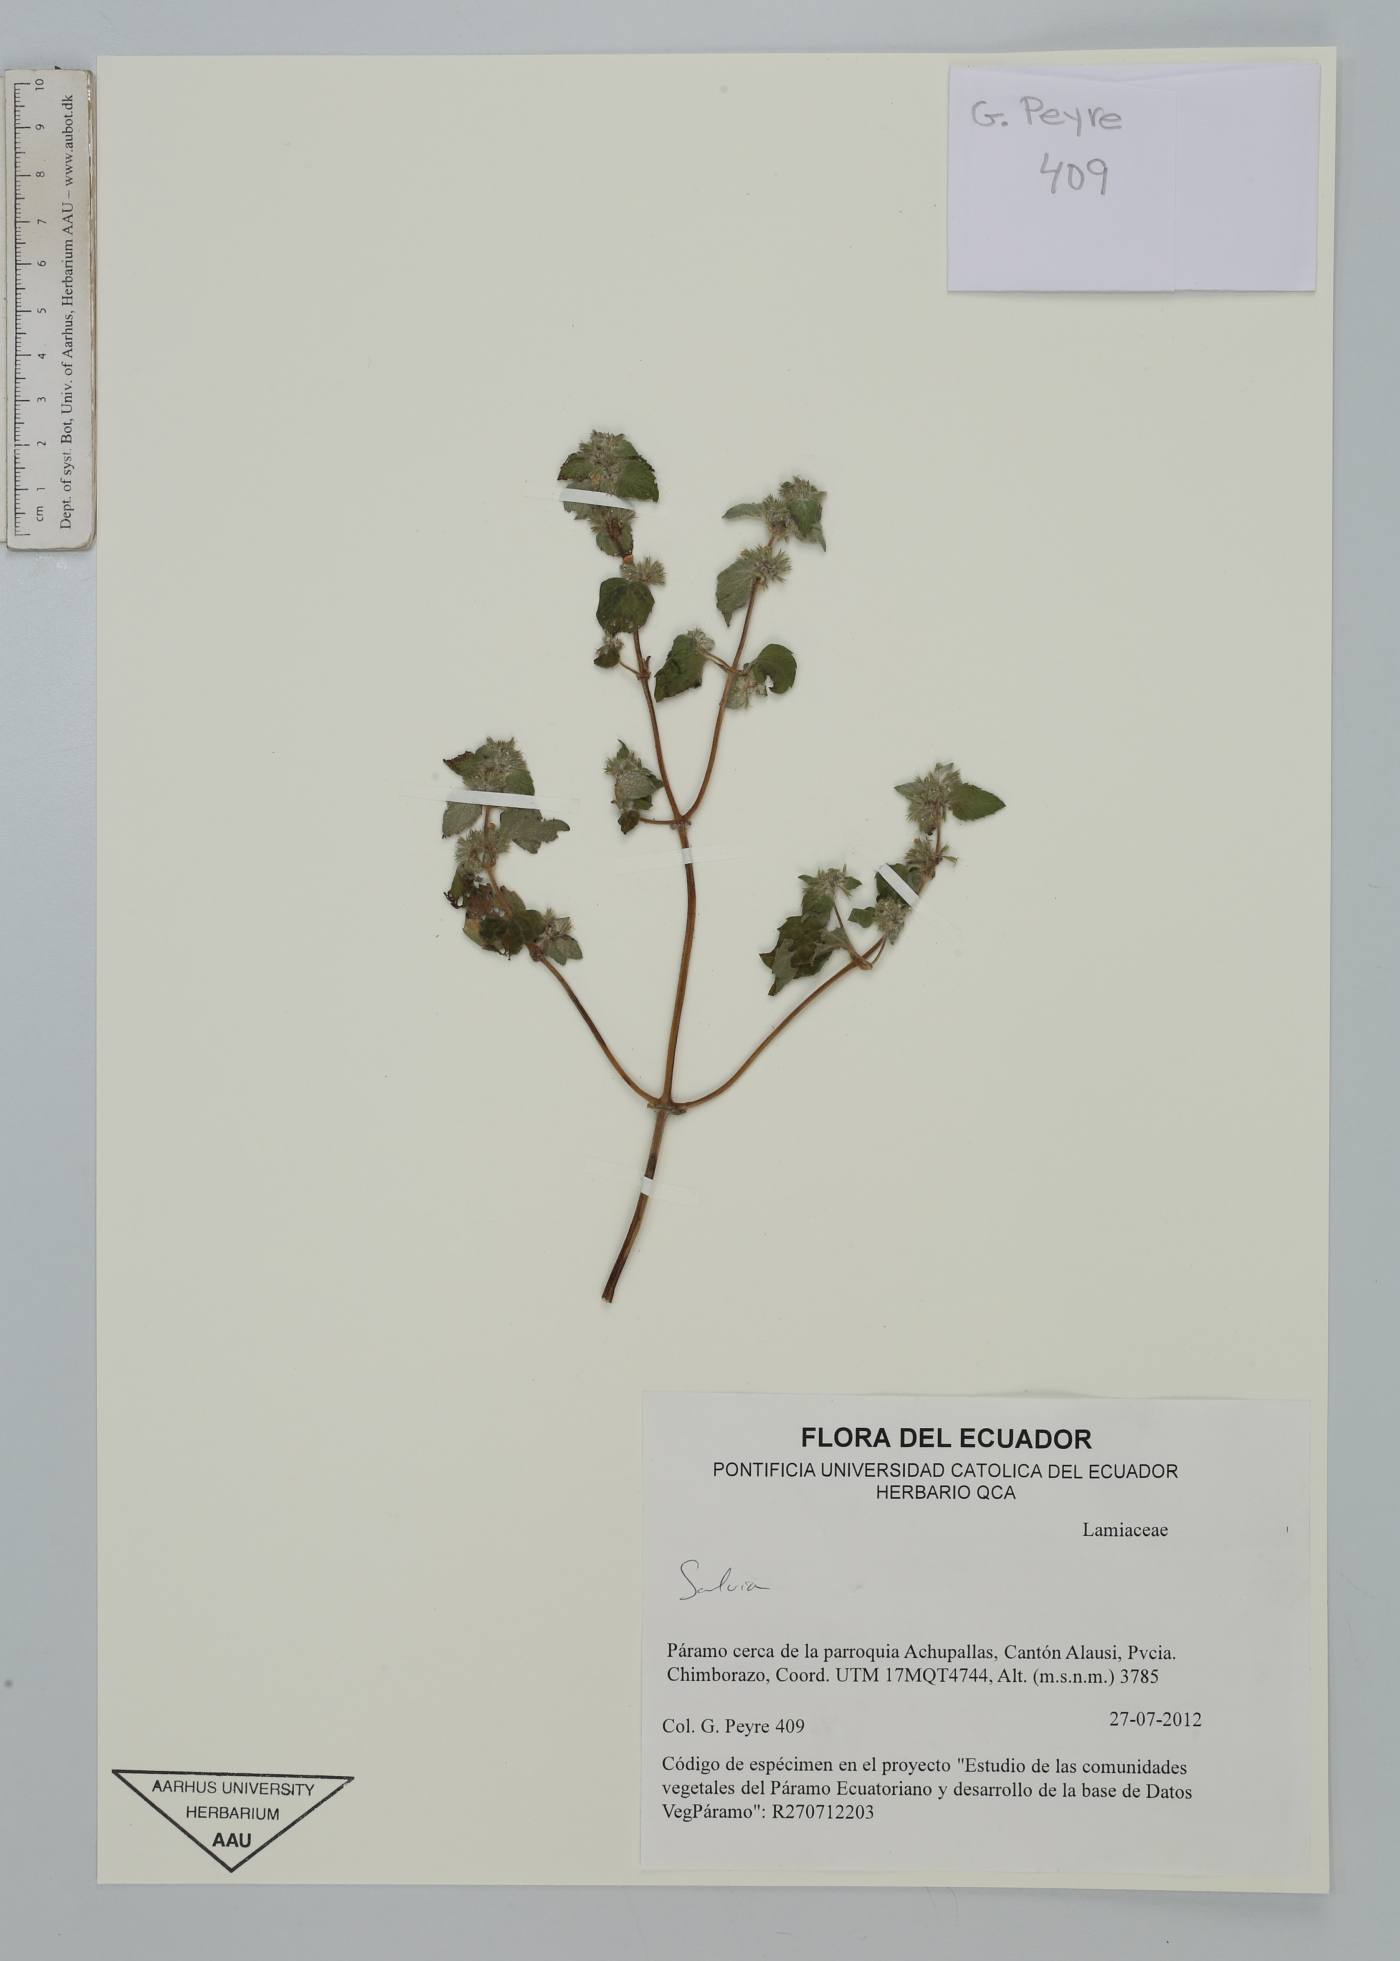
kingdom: Plantae
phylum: Tracheophyta
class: Magnoliopsida
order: Lamiales
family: Lamiaceae
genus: Salvia
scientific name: Salvia
